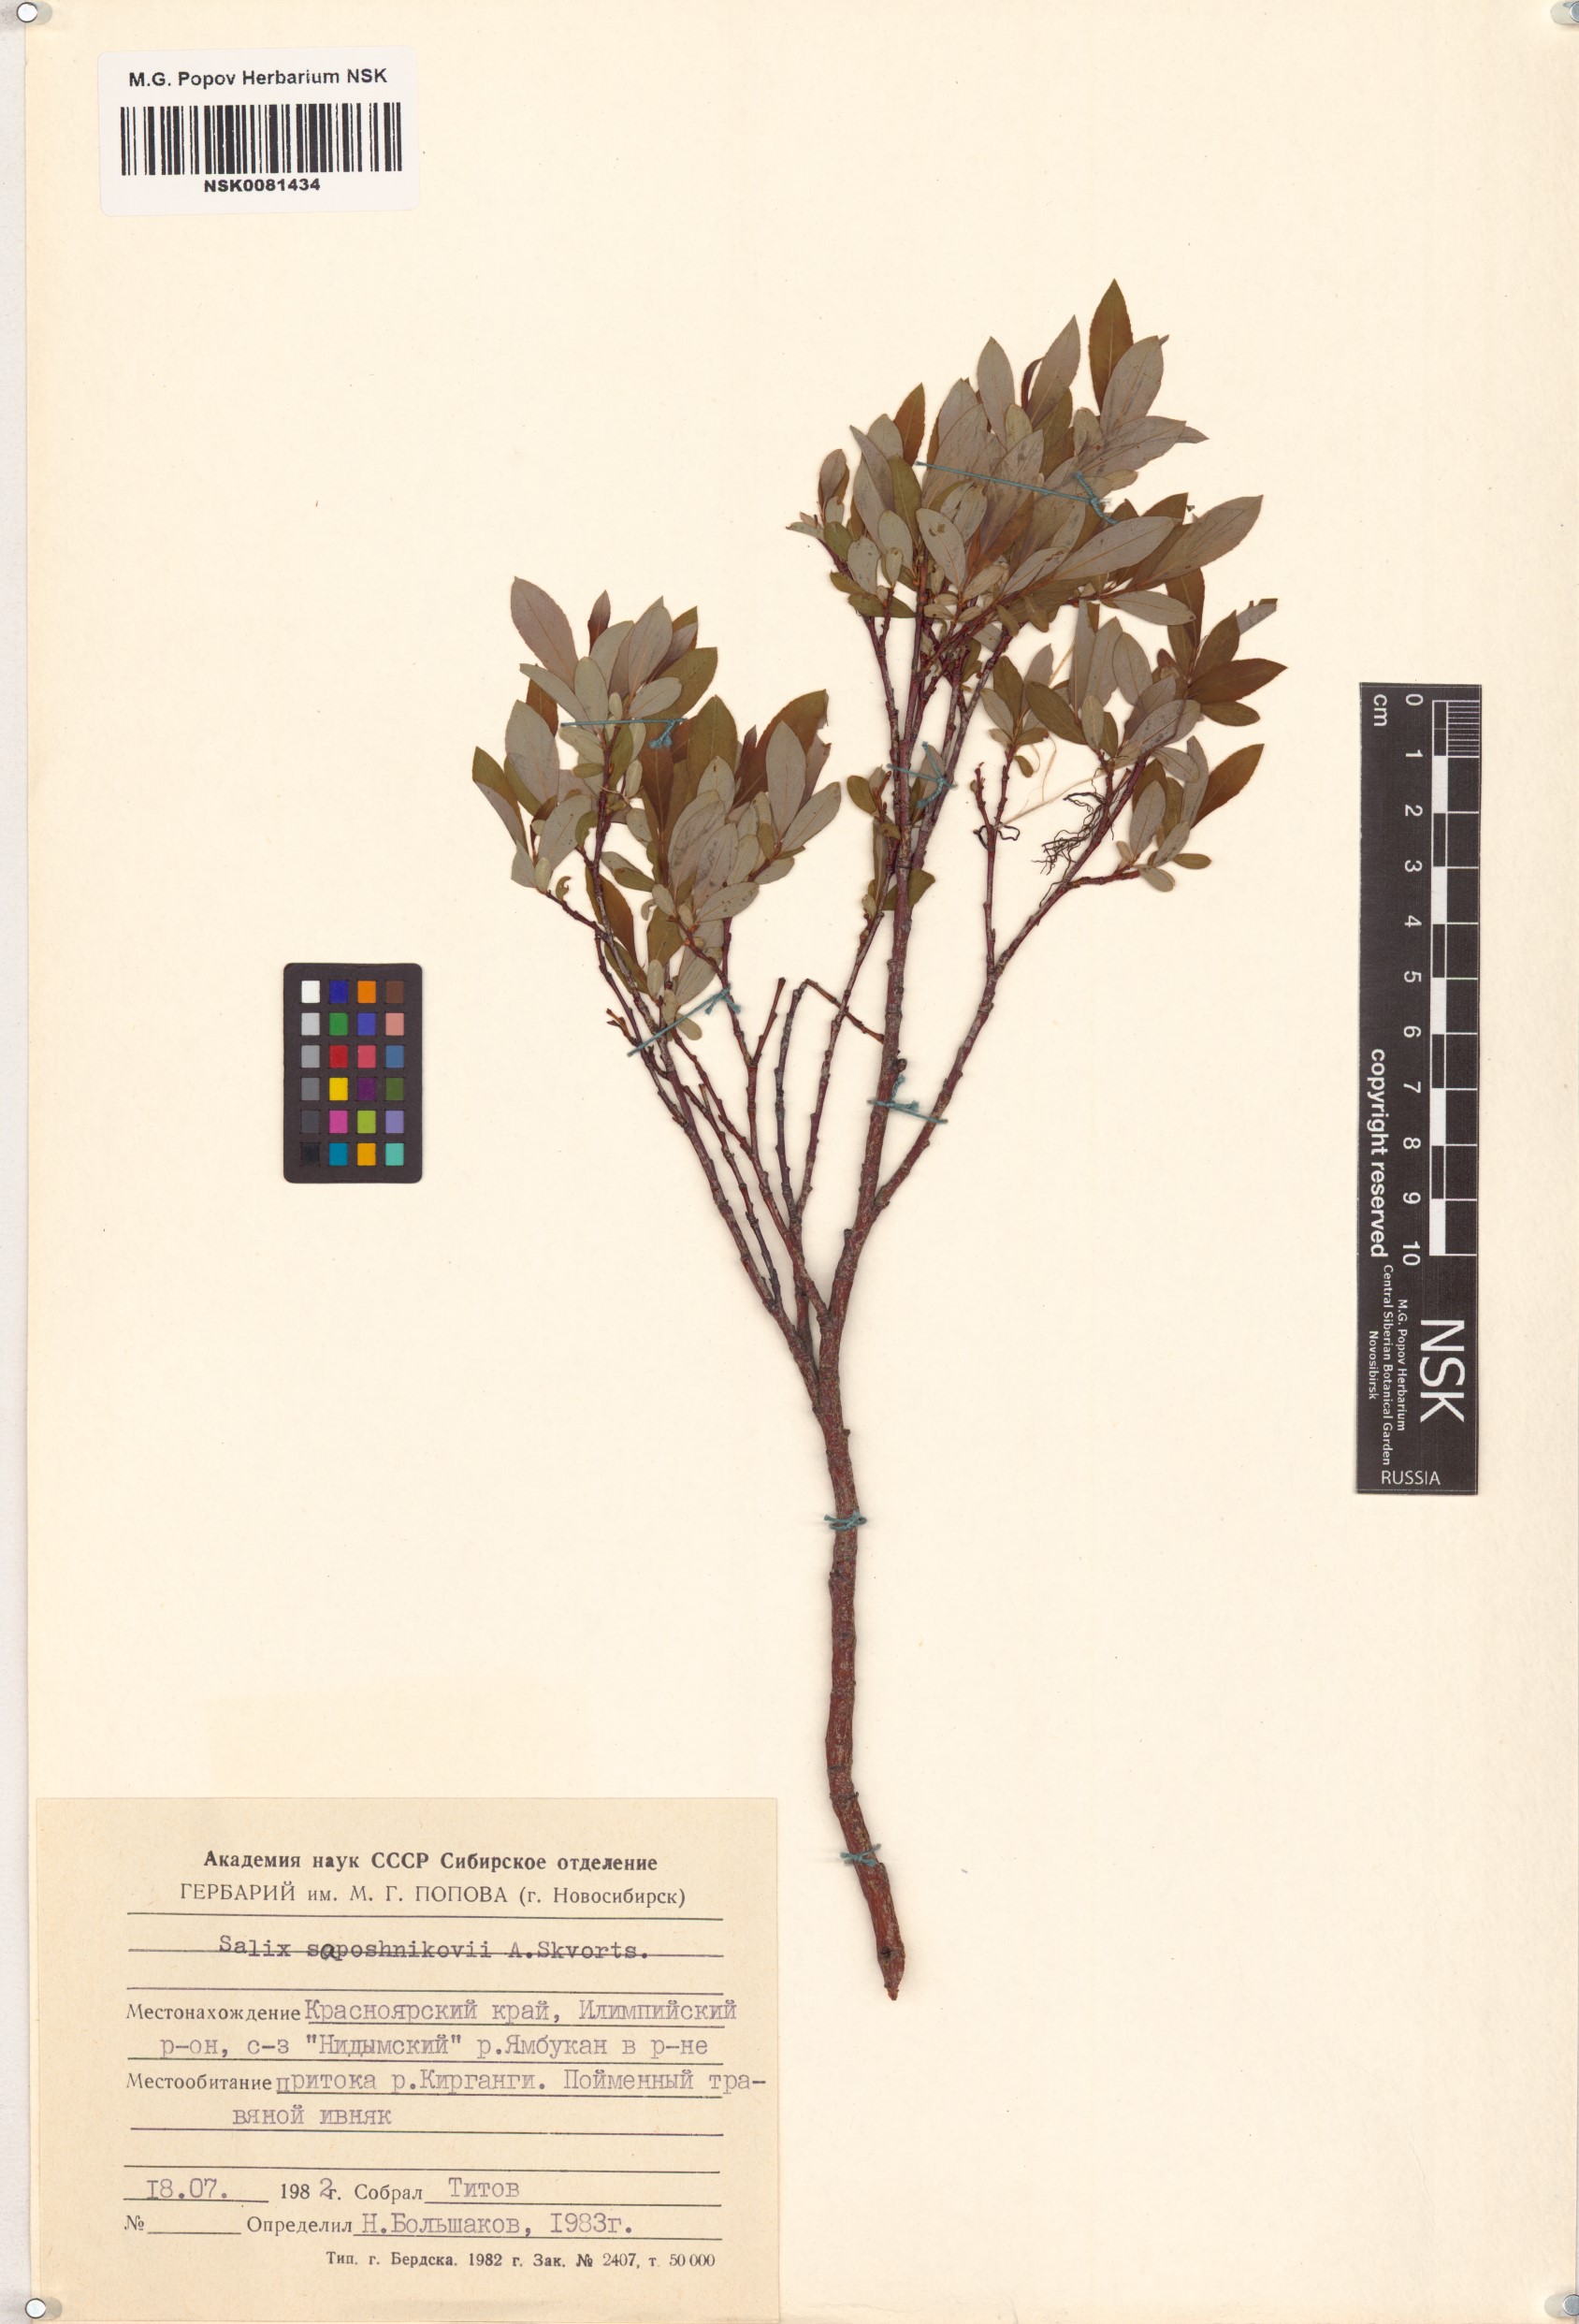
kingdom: Plantae
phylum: Tracheophyta
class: Magnoliopsida
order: Malpighiales
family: Salicaceae
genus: Salix
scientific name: Salix saposhnikovii
